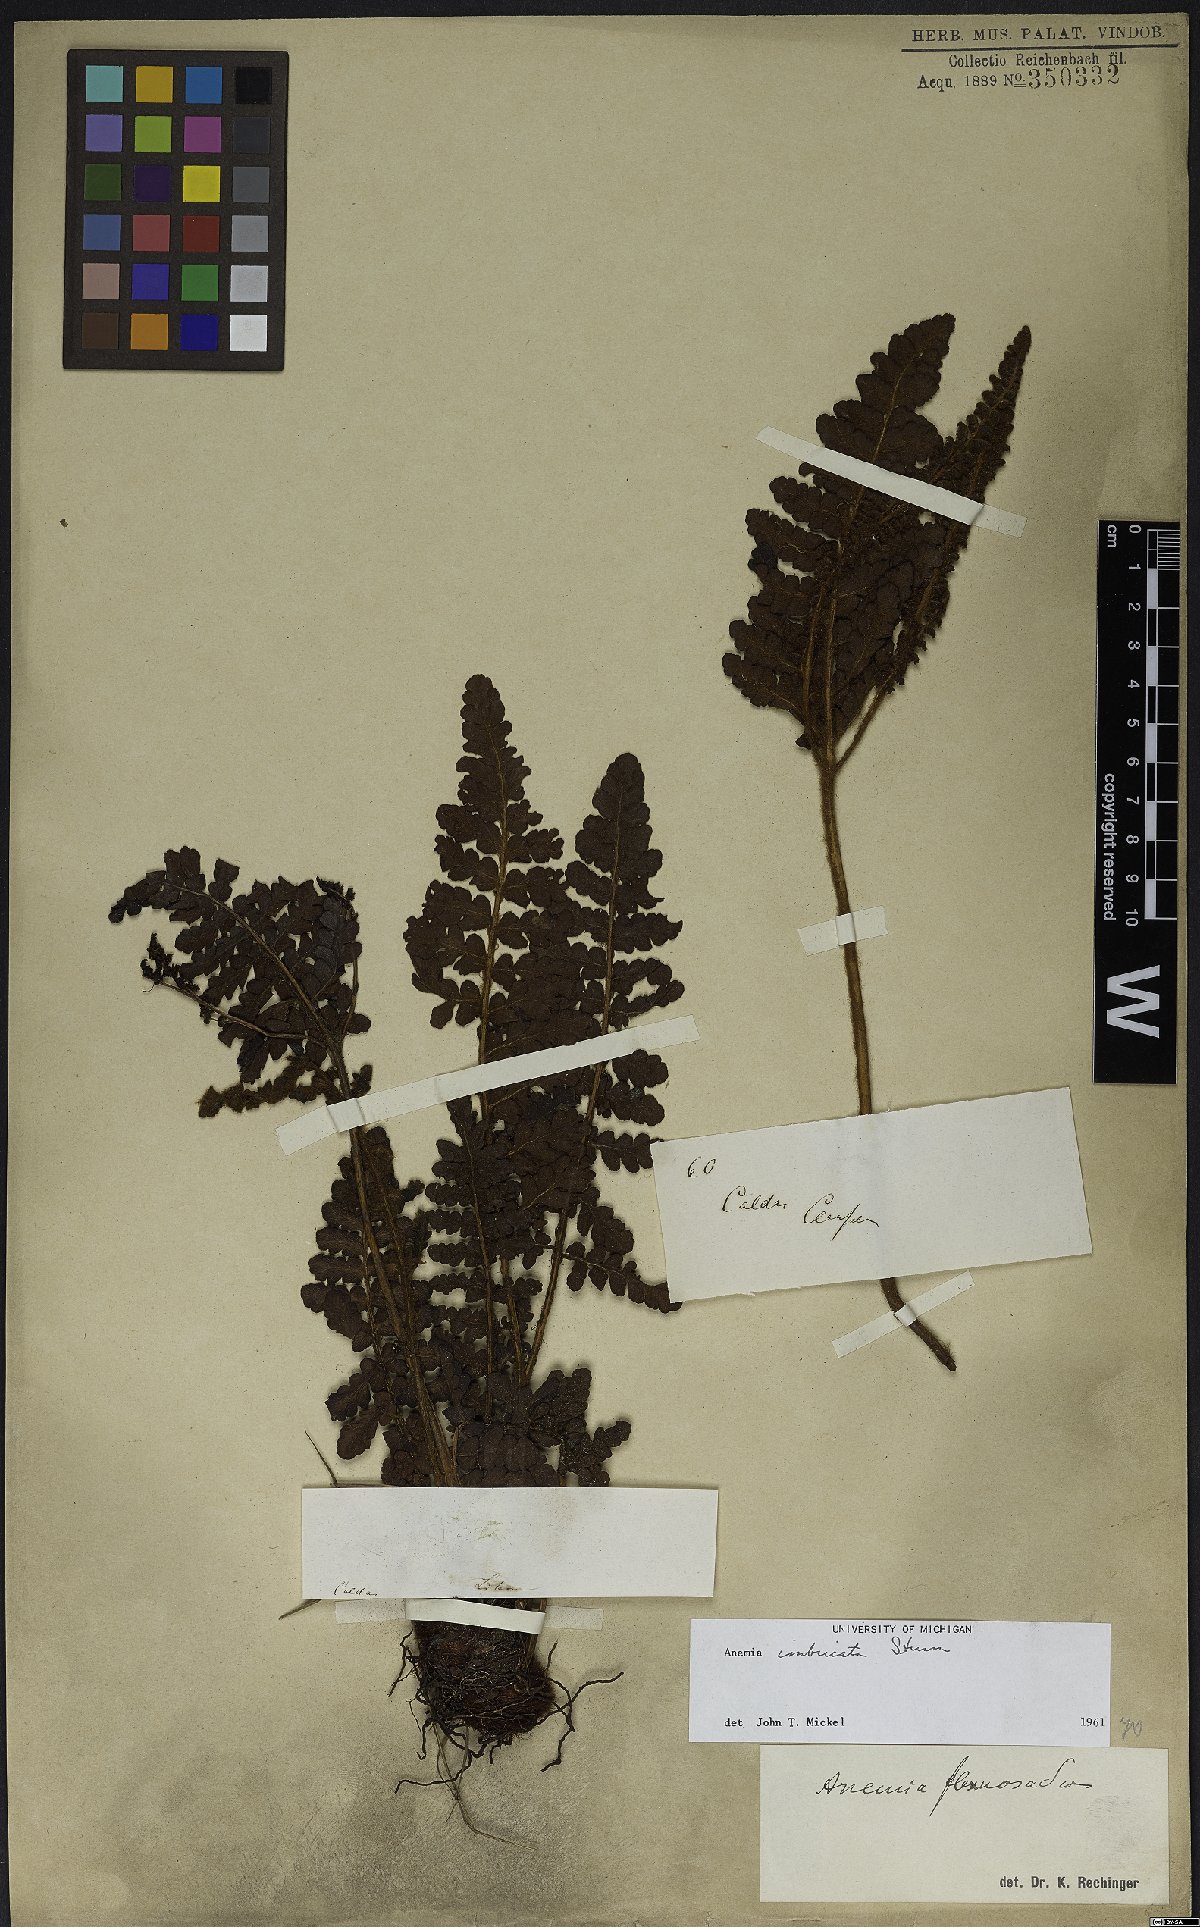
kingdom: Plantae
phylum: Tracheophyta
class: Polypodiopsida
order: Schizaeales
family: Anemiaceae
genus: Anemia
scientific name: Anemia imbricata
